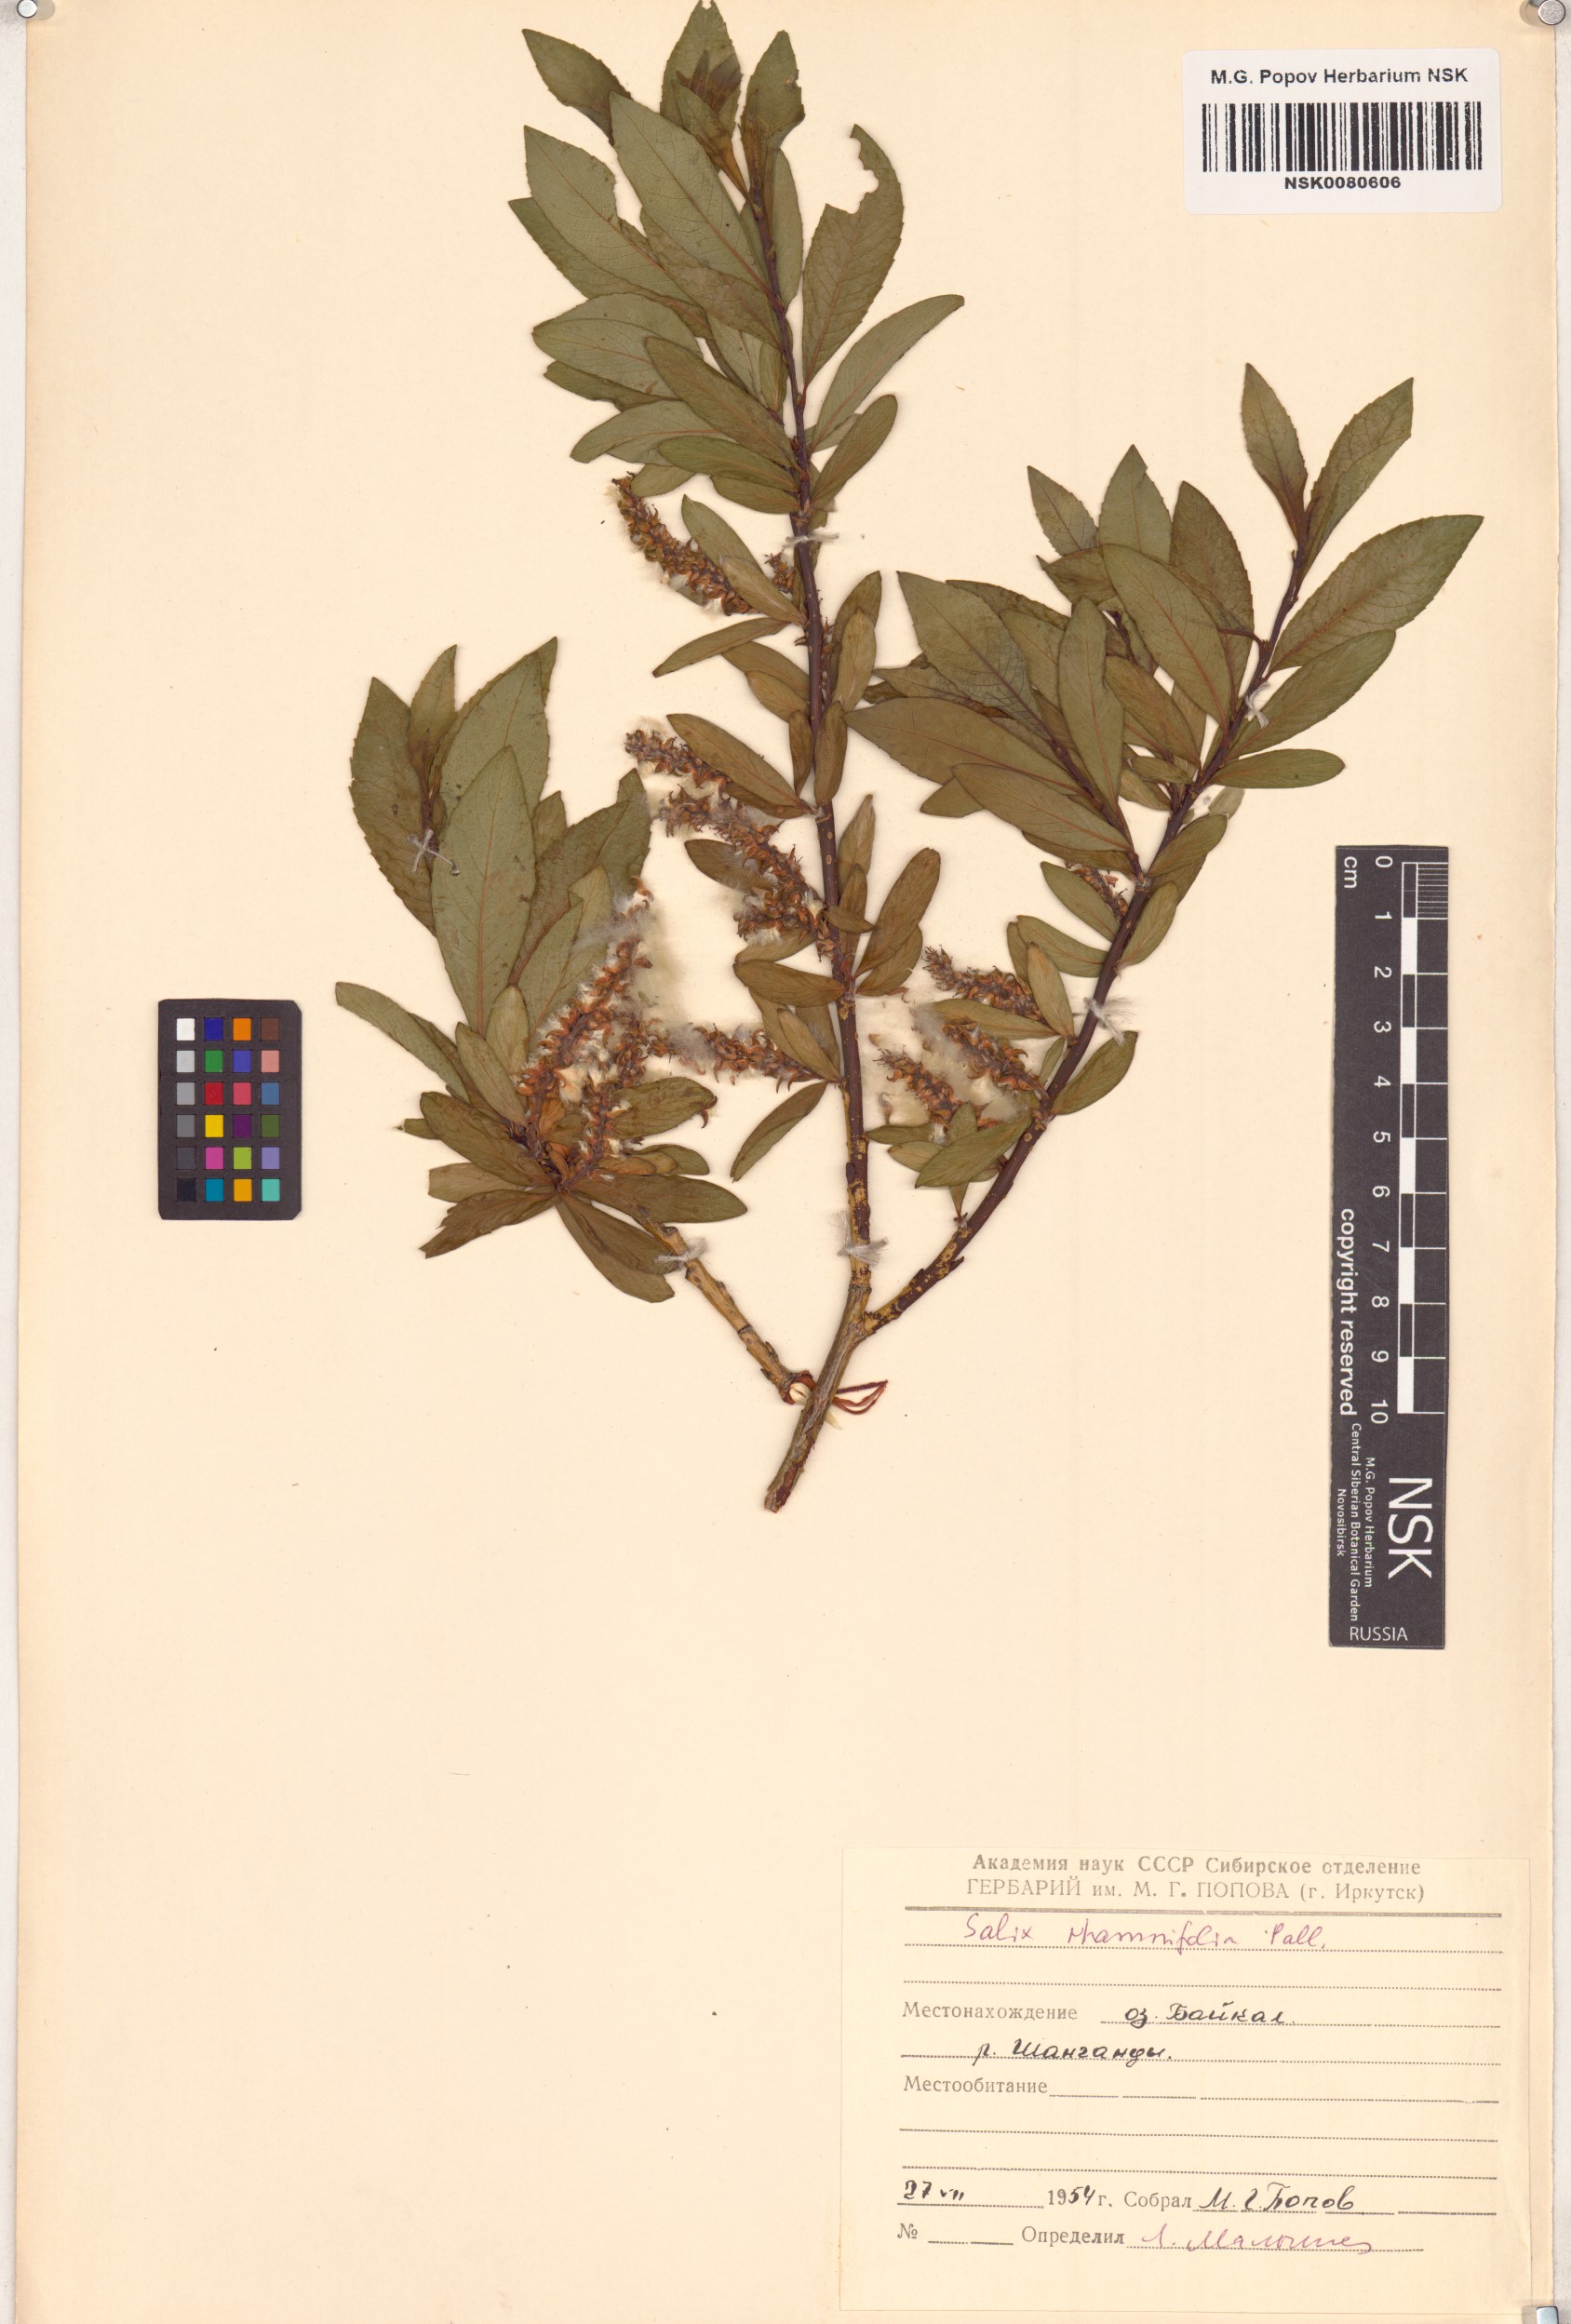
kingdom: Plantae
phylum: Tracheophyta
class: Magnoliopsida
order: Malpighiales
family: Salicaceae
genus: Salix
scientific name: Salix rhamnifolia
